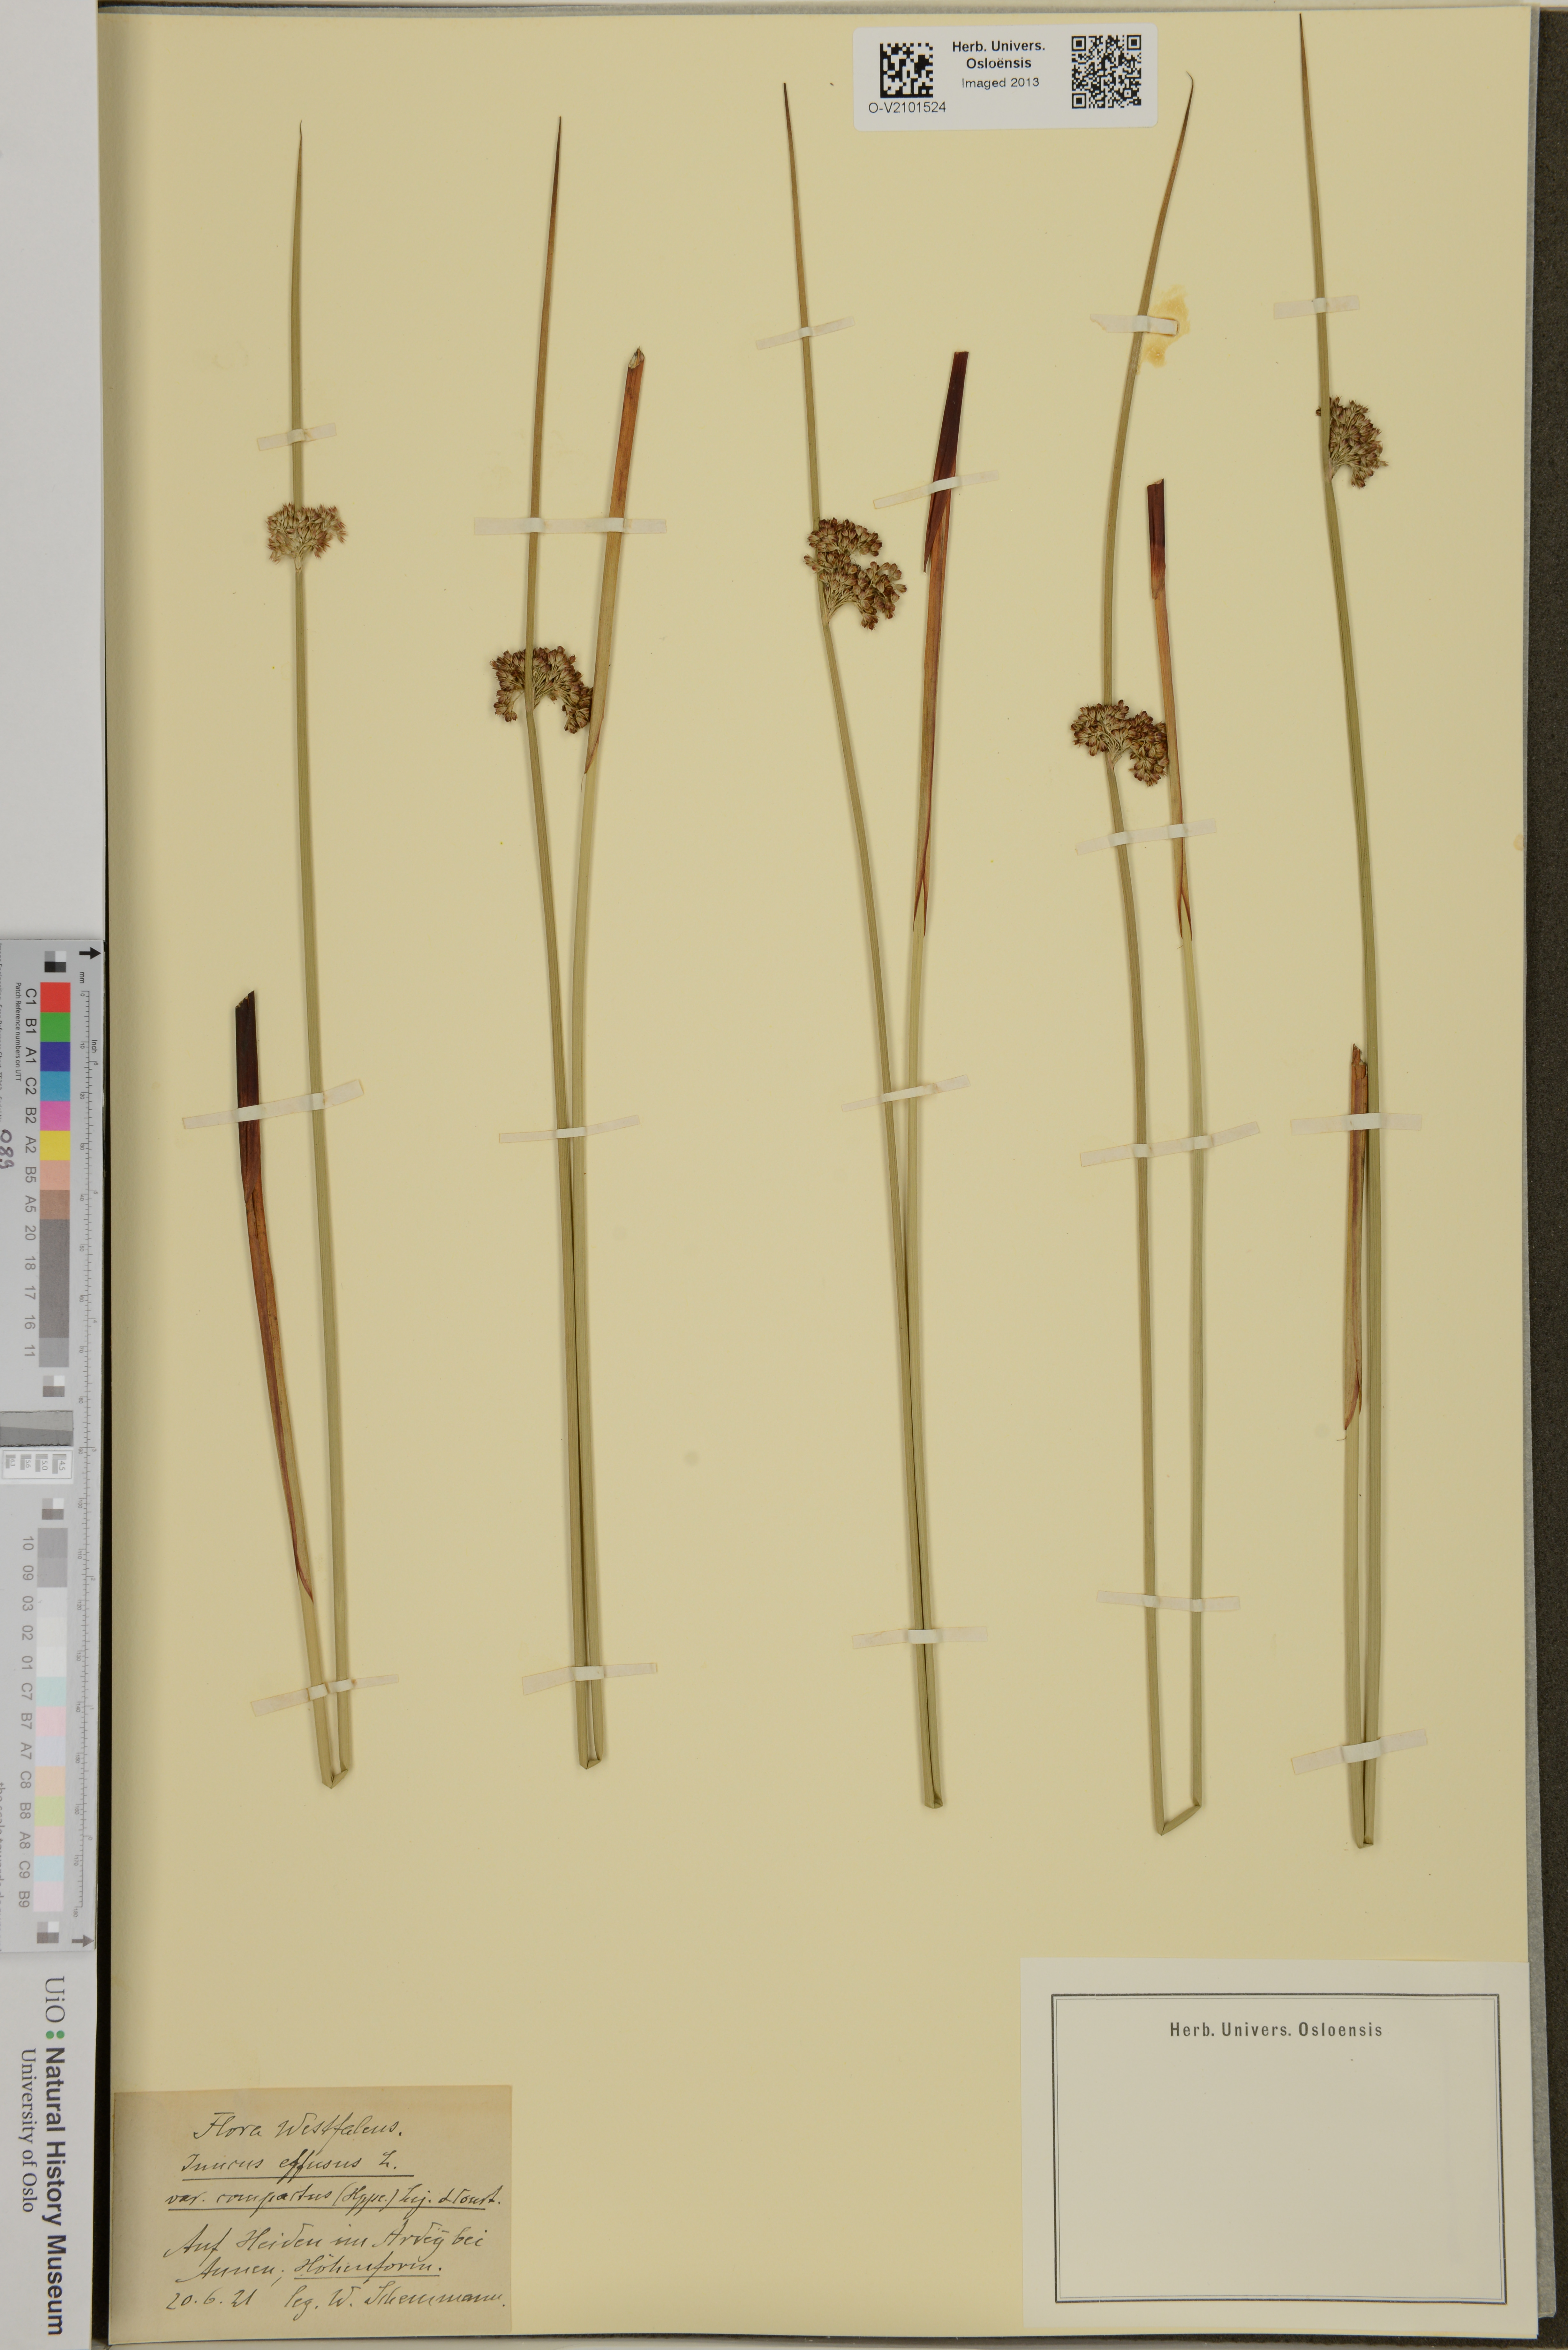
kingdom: Plantae
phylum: Tracheophyta
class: Liliopsida
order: Poales
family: Juncaceae
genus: Juncus
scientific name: Juncus effusus
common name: Soft rush
